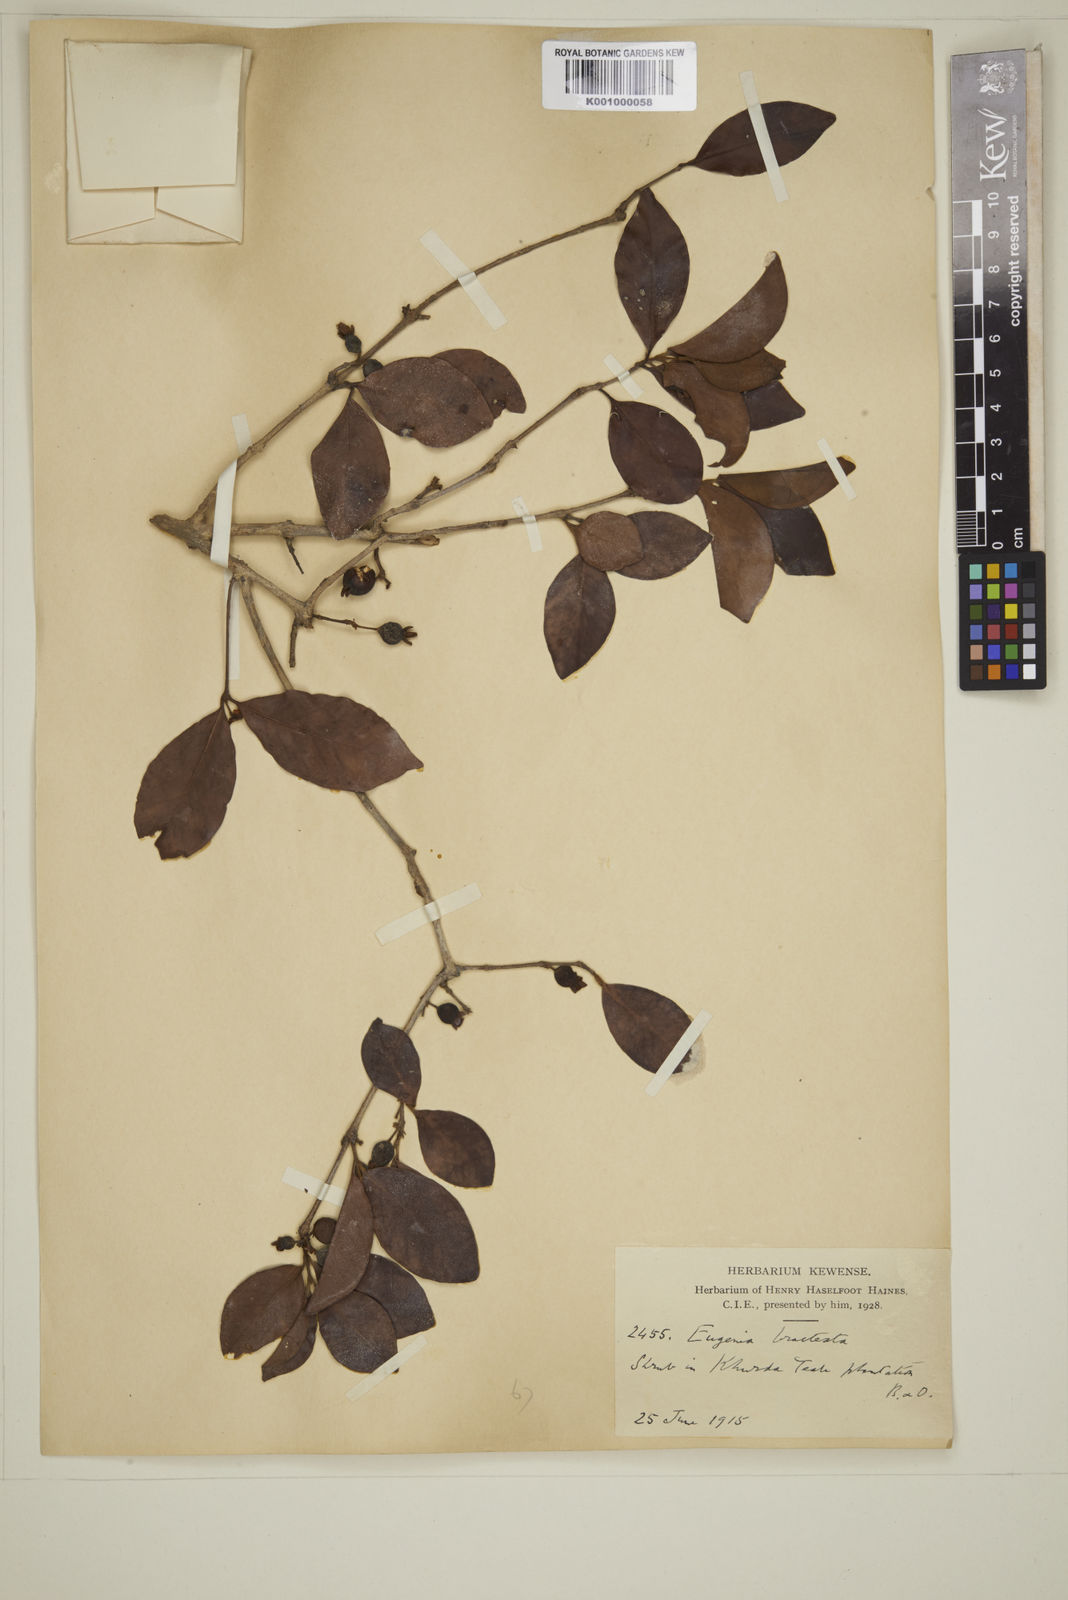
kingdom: Plantae
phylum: Tracheophyta
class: Magnoliopsida
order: Myrtales
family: Myrtaceae
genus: Myrcia
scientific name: Myrcia bracteata
